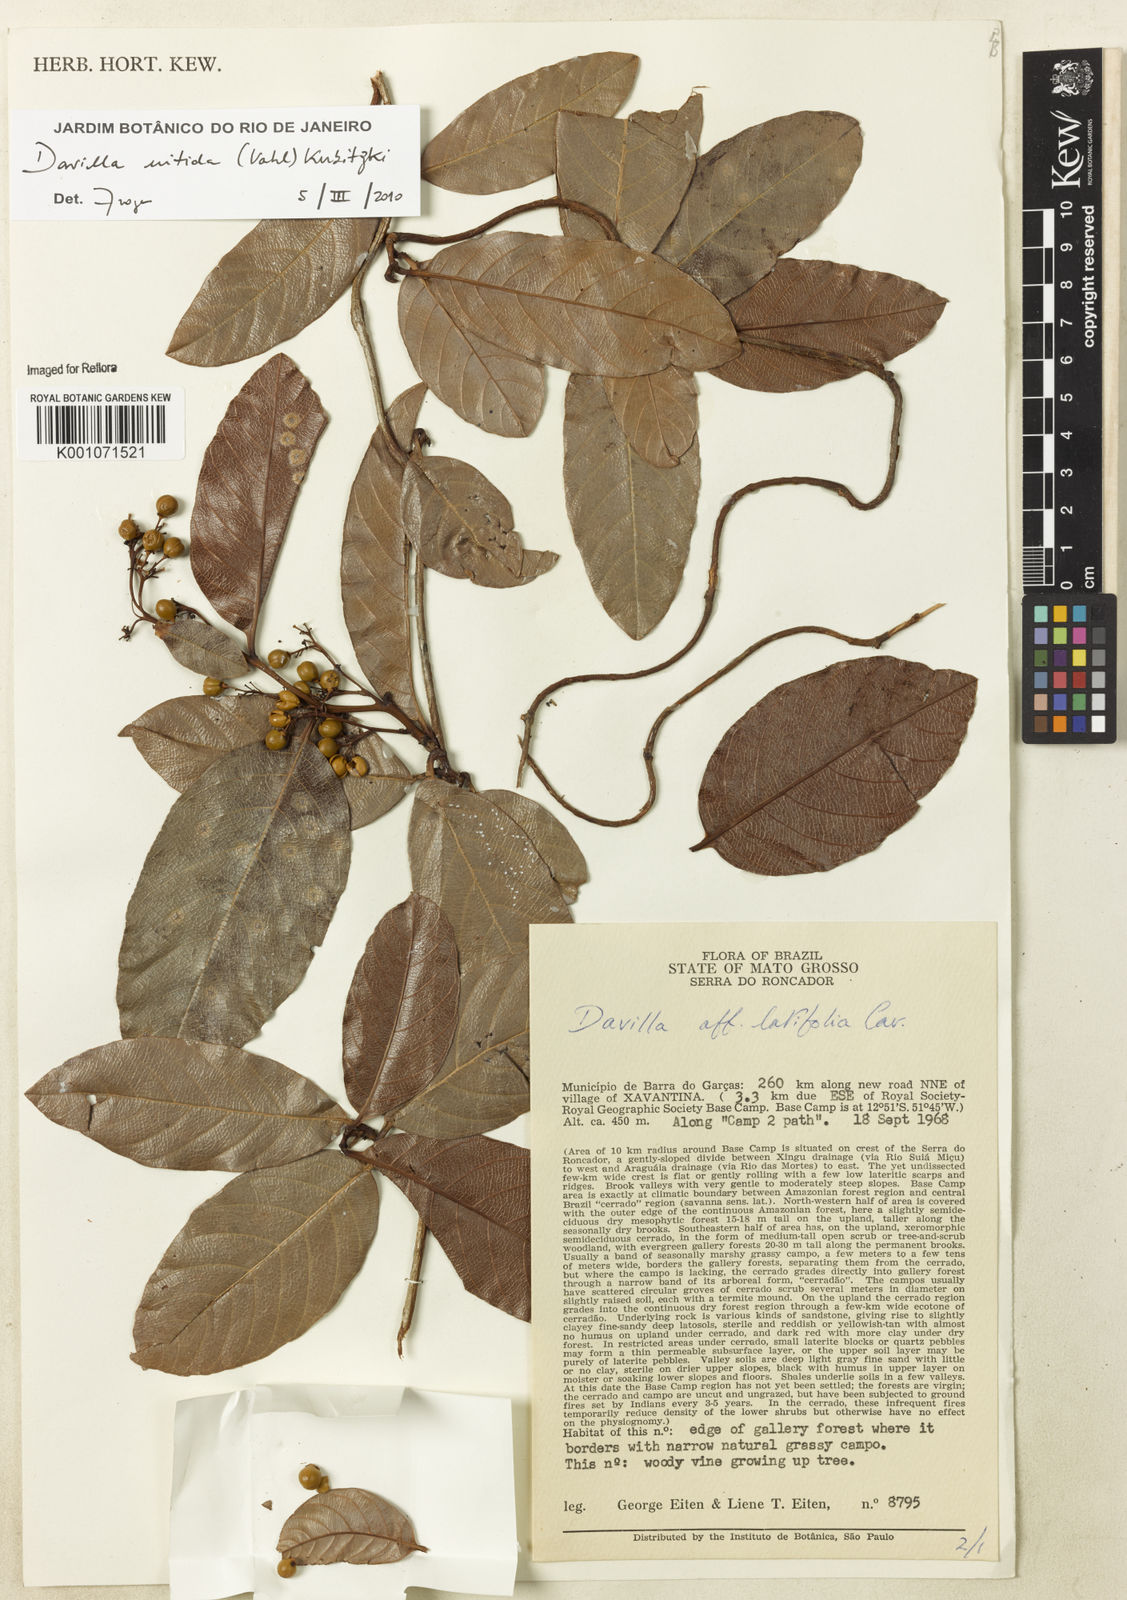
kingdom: Plantae
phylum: Tracheophyta
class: Magnoliopsida
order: Dilleniales
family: Dilleniaceae
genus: Davilla
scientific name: Davilla nitida
